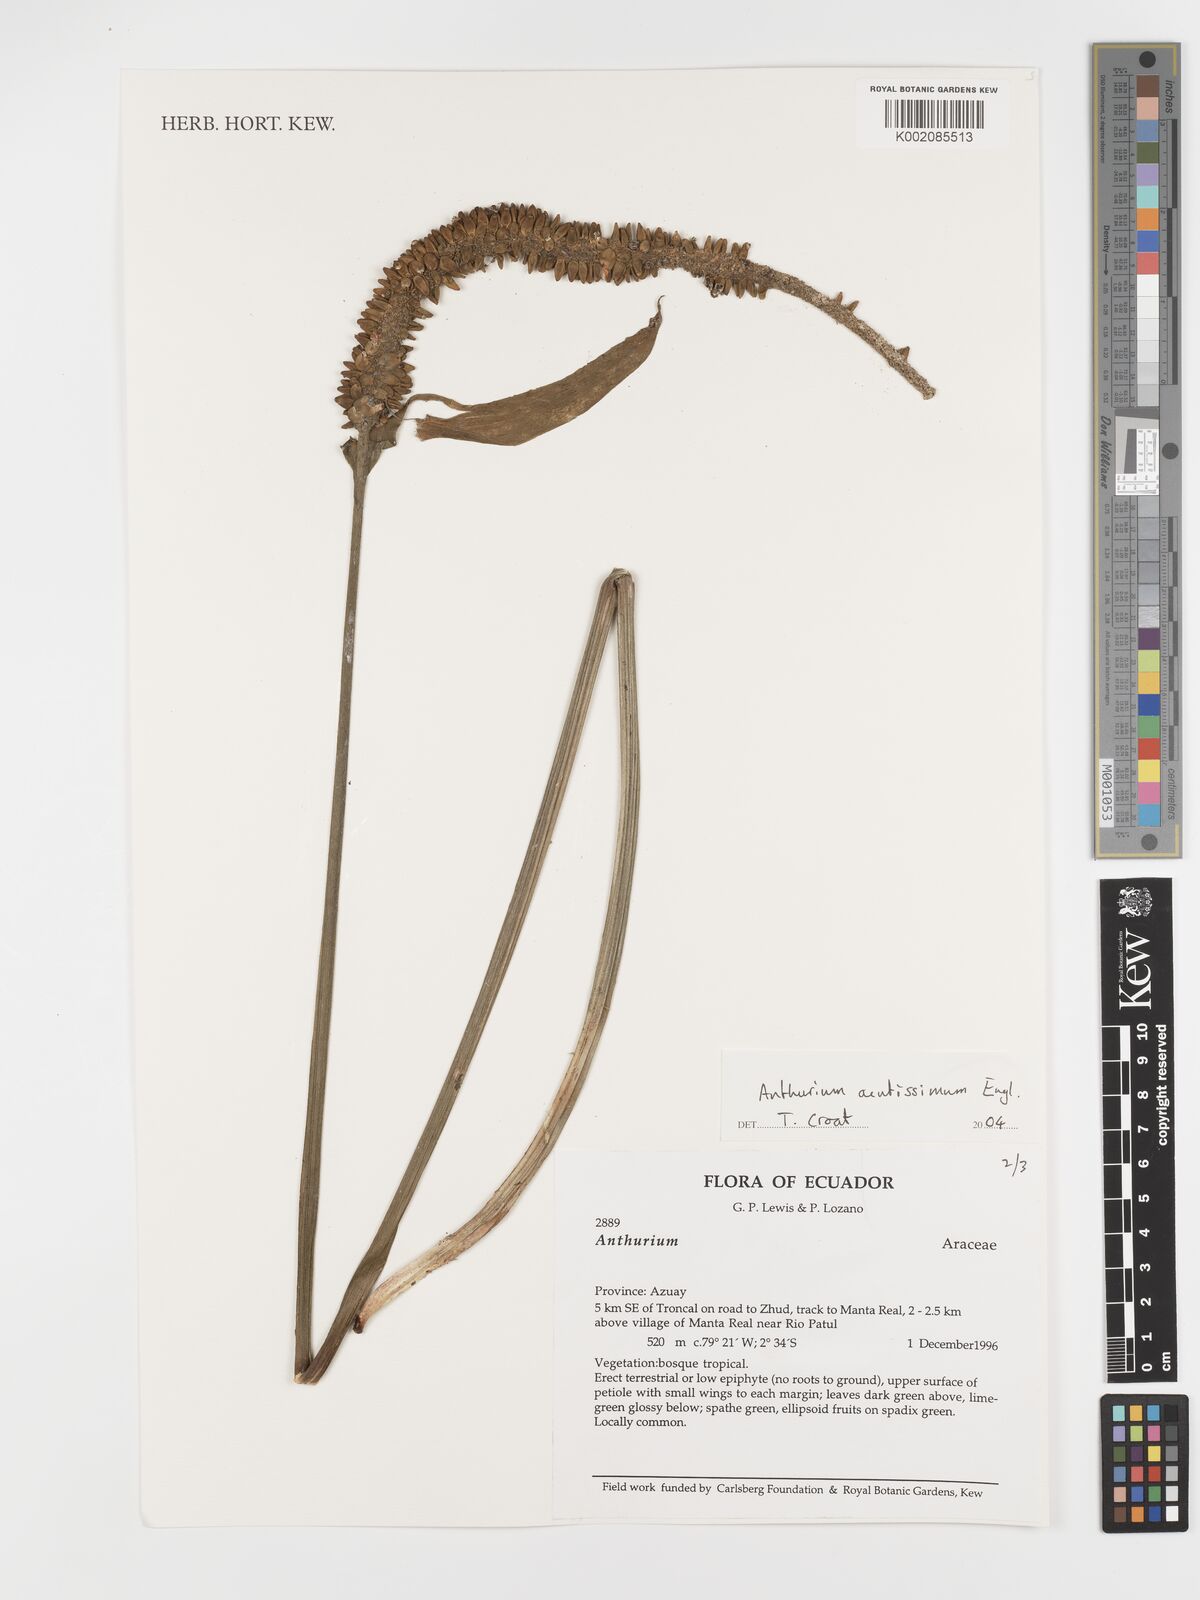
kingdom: Plantae
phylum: Tracheophyta
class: Liliopsida
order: Alismatales
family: Araceae
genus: Anthurium
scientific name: Anthurium acutissimum
